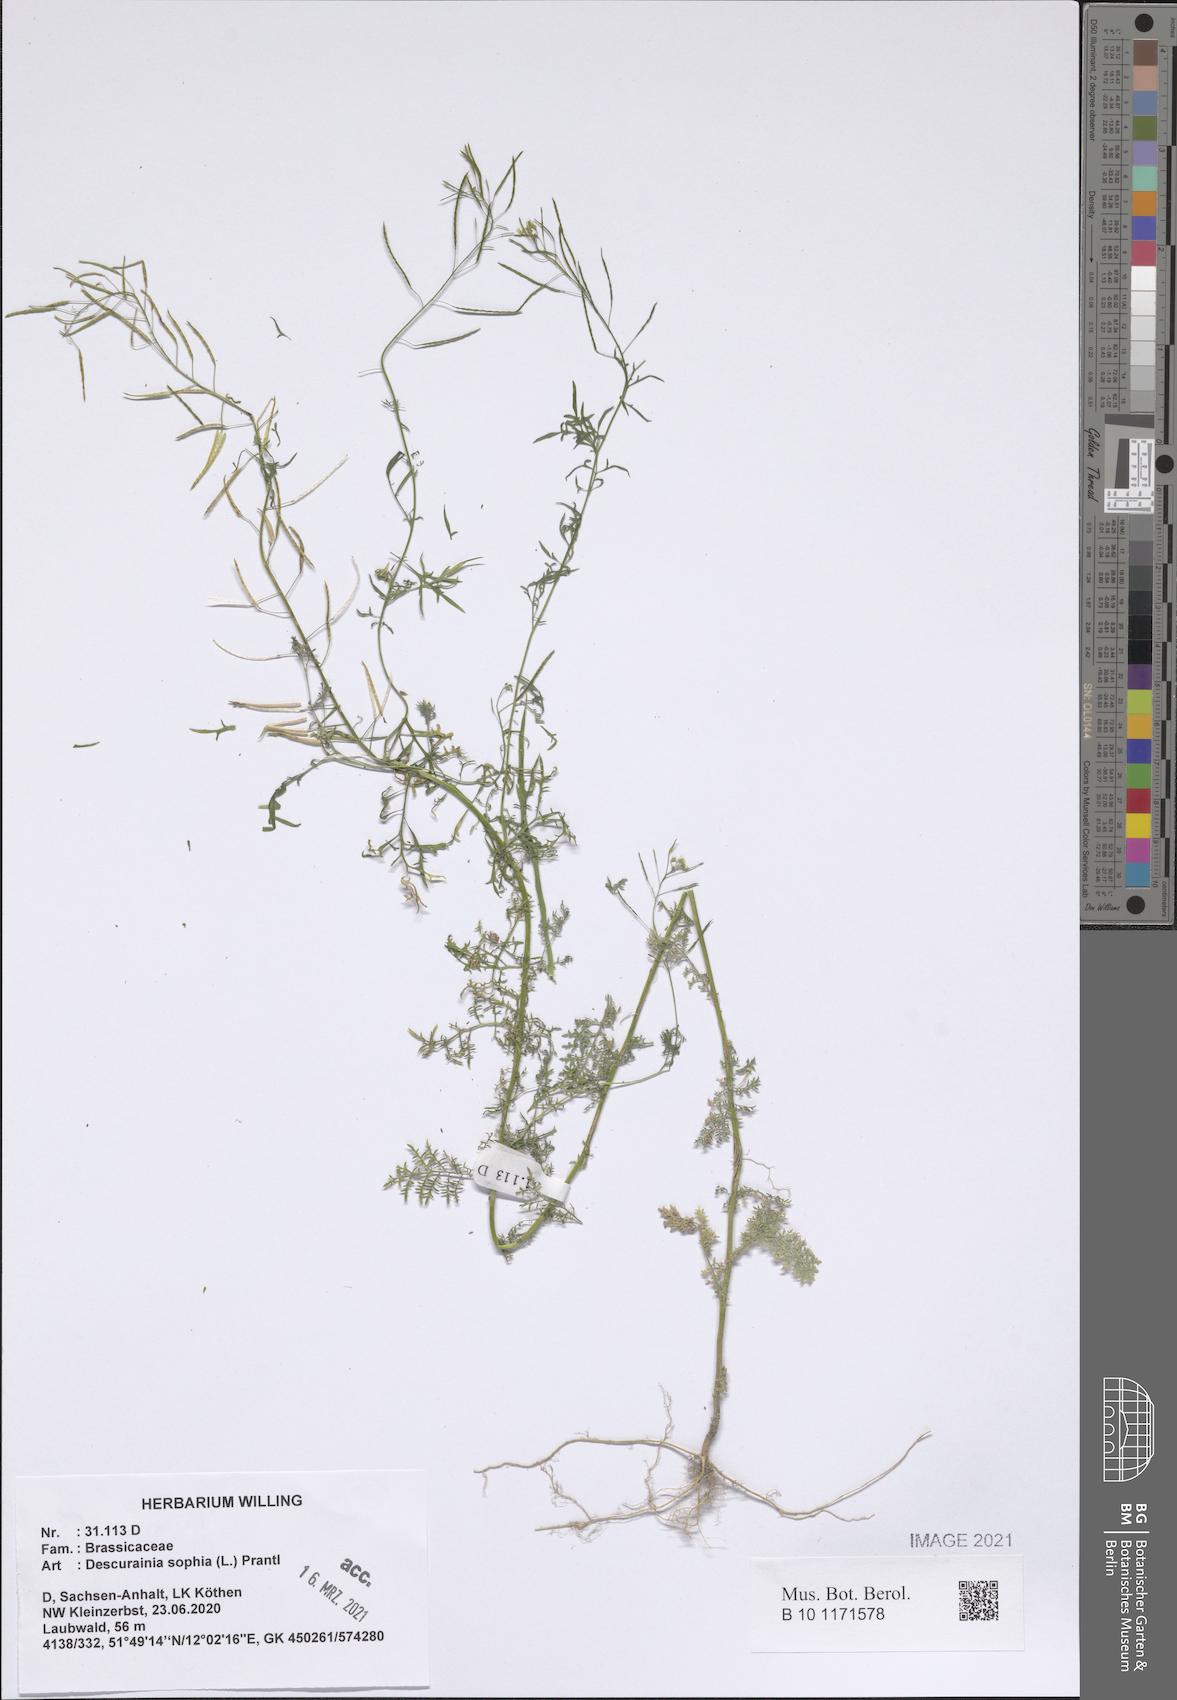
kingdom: Plantae
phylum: Tracheophyta
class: Magnoliopsida
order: Brassicales
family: Brassicaceae
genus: Descurainia
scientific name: Descurainia sophia
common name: Flixweed
